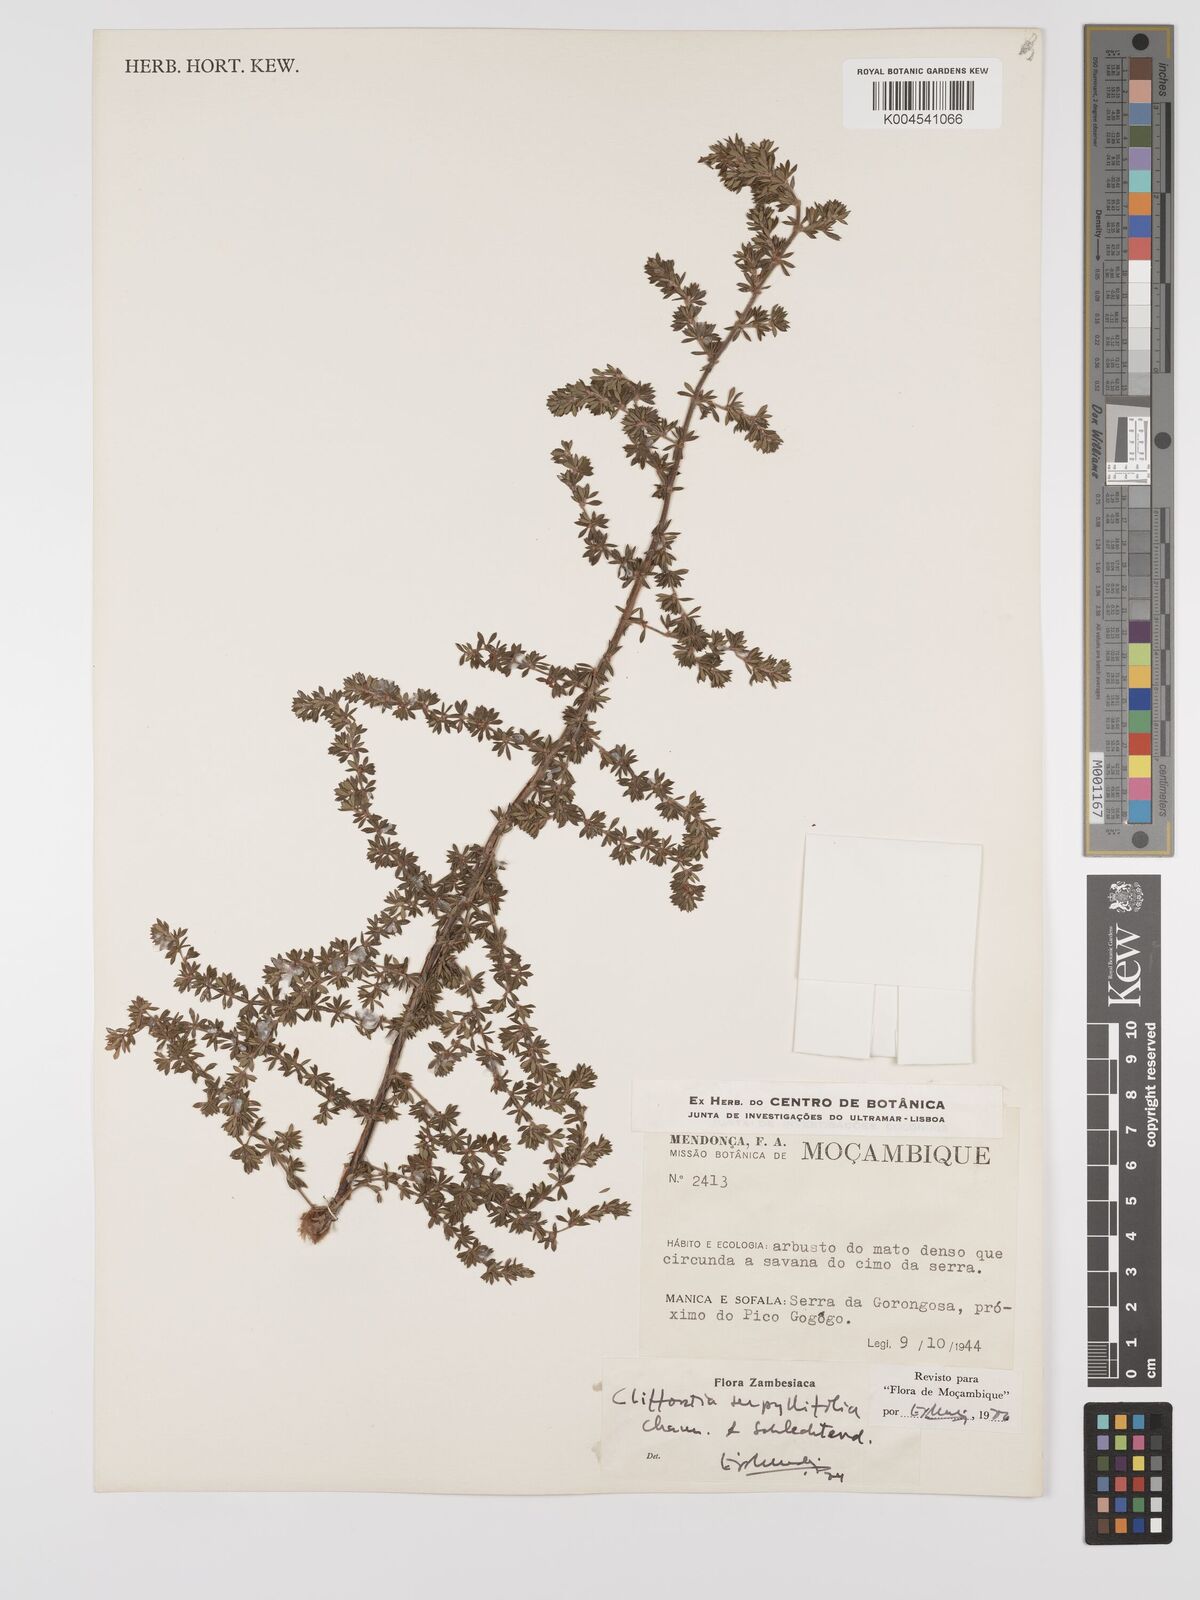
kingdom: Plantae
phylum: Tracheophyta
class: Magnoliopsida
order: Rosales
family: Rosaceae
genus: Cliffortia
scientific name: Cliffortia serpyllifolia
